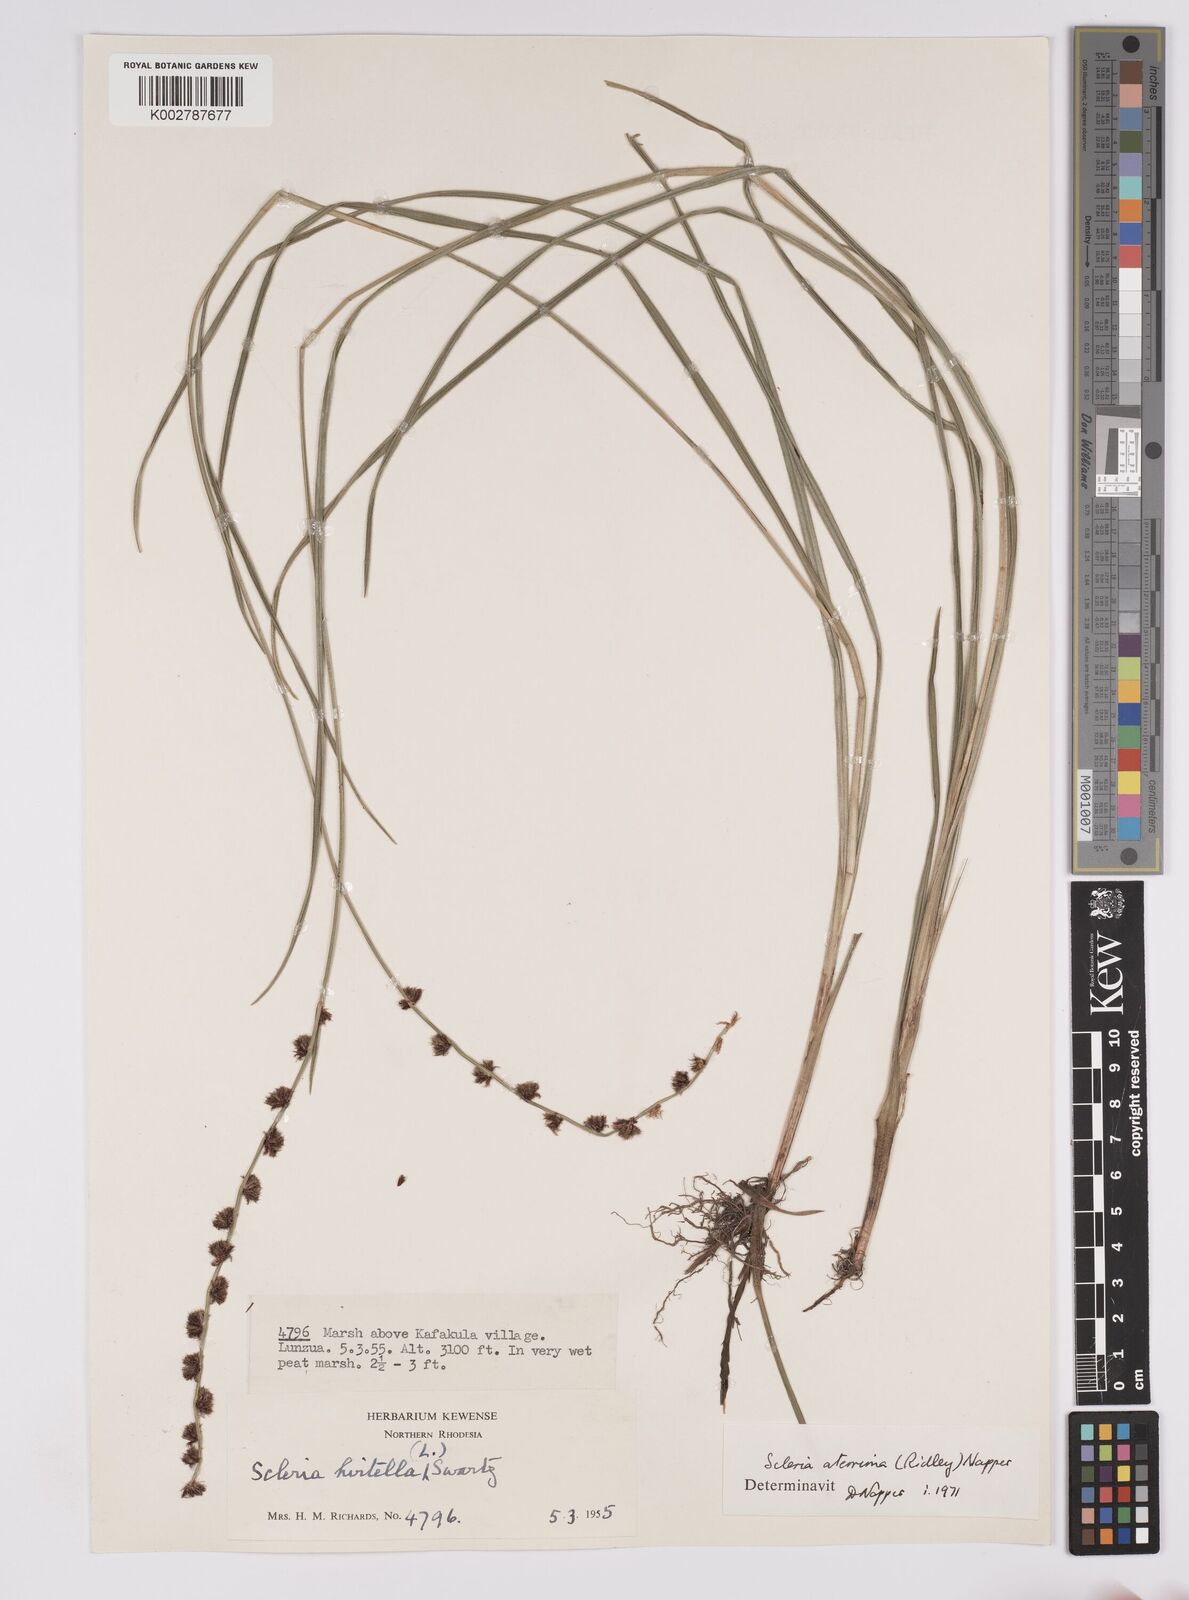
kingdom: Plantae
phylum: Tracheophyta
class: Liliopsida
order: Poales
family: Cyperaceae
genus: Scleria
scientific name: Scleria catophylla
